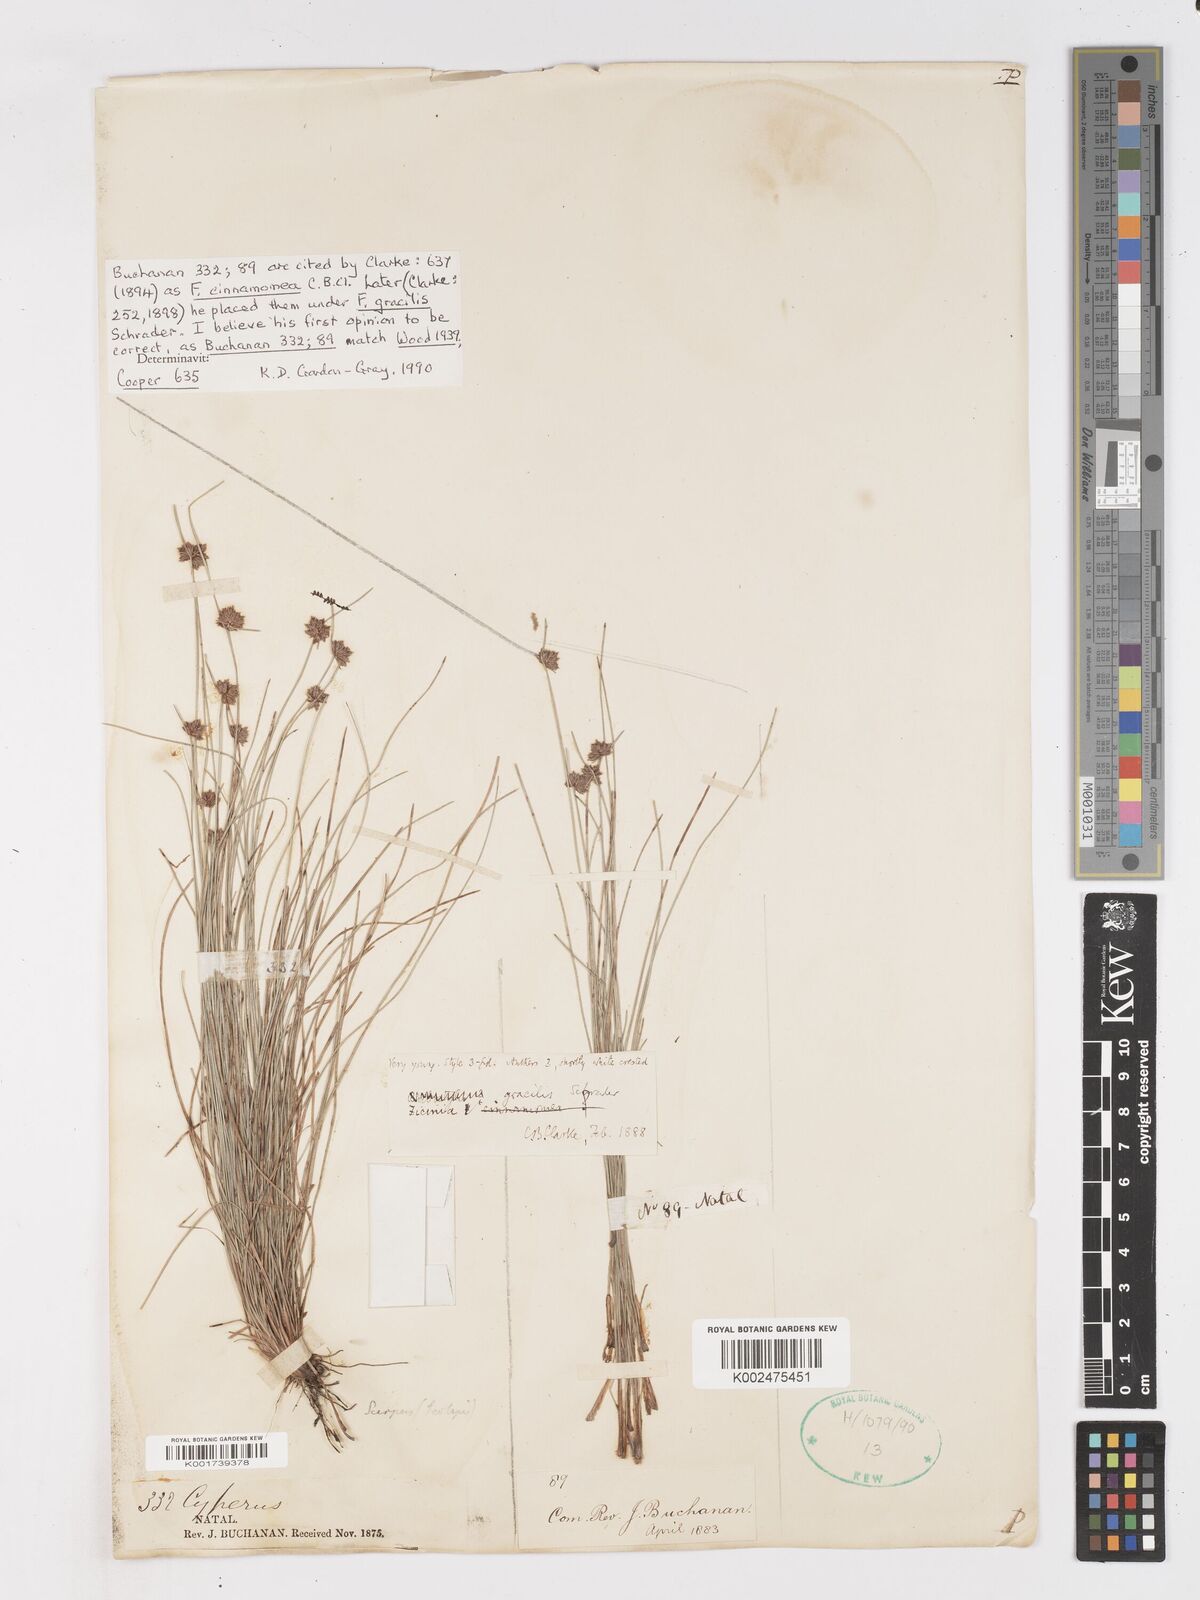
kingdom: Plantae
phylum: Tracheophyta
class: Liliopsida
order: Poales
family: Cyperaceae
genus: Ficinia
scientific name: Ficinia cinnamomea
